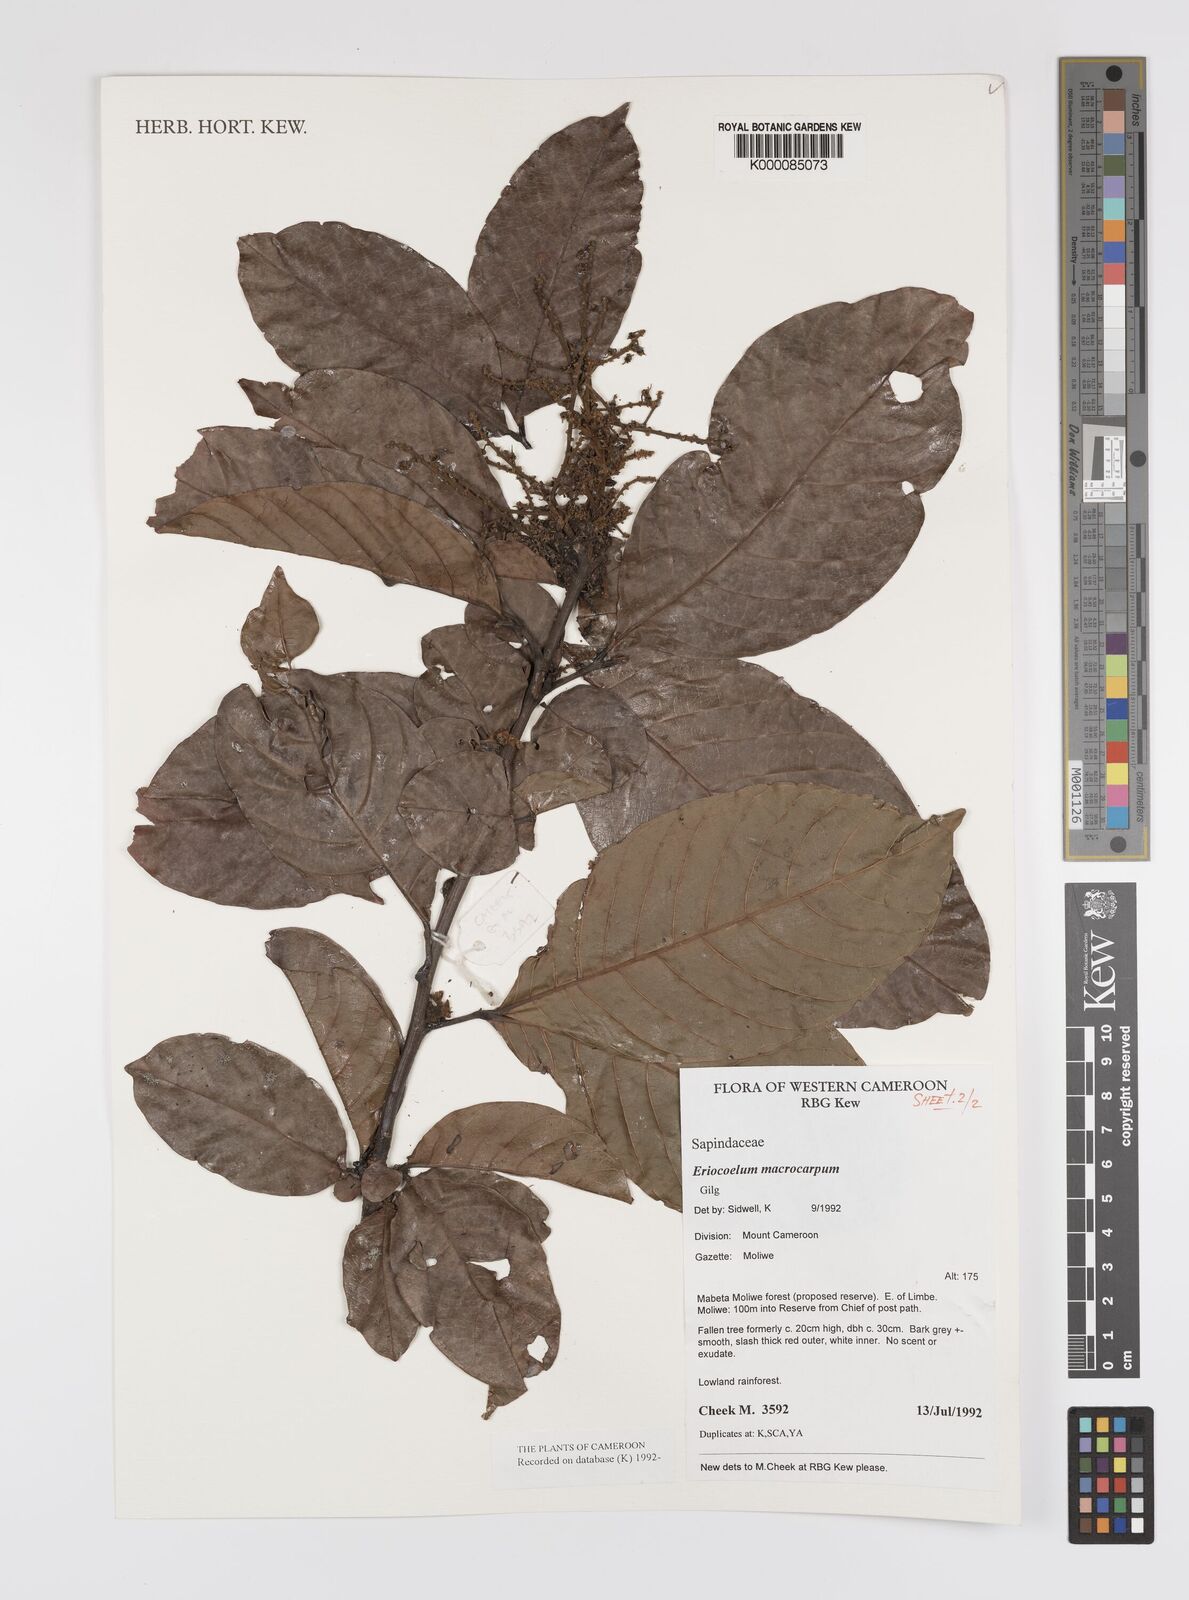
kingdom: Plantae
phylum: Tracheophyta
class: Magnoliopsida
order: Sapindales
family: Sapindaceae
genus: Eriocoelum
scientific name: Eriocoelum
